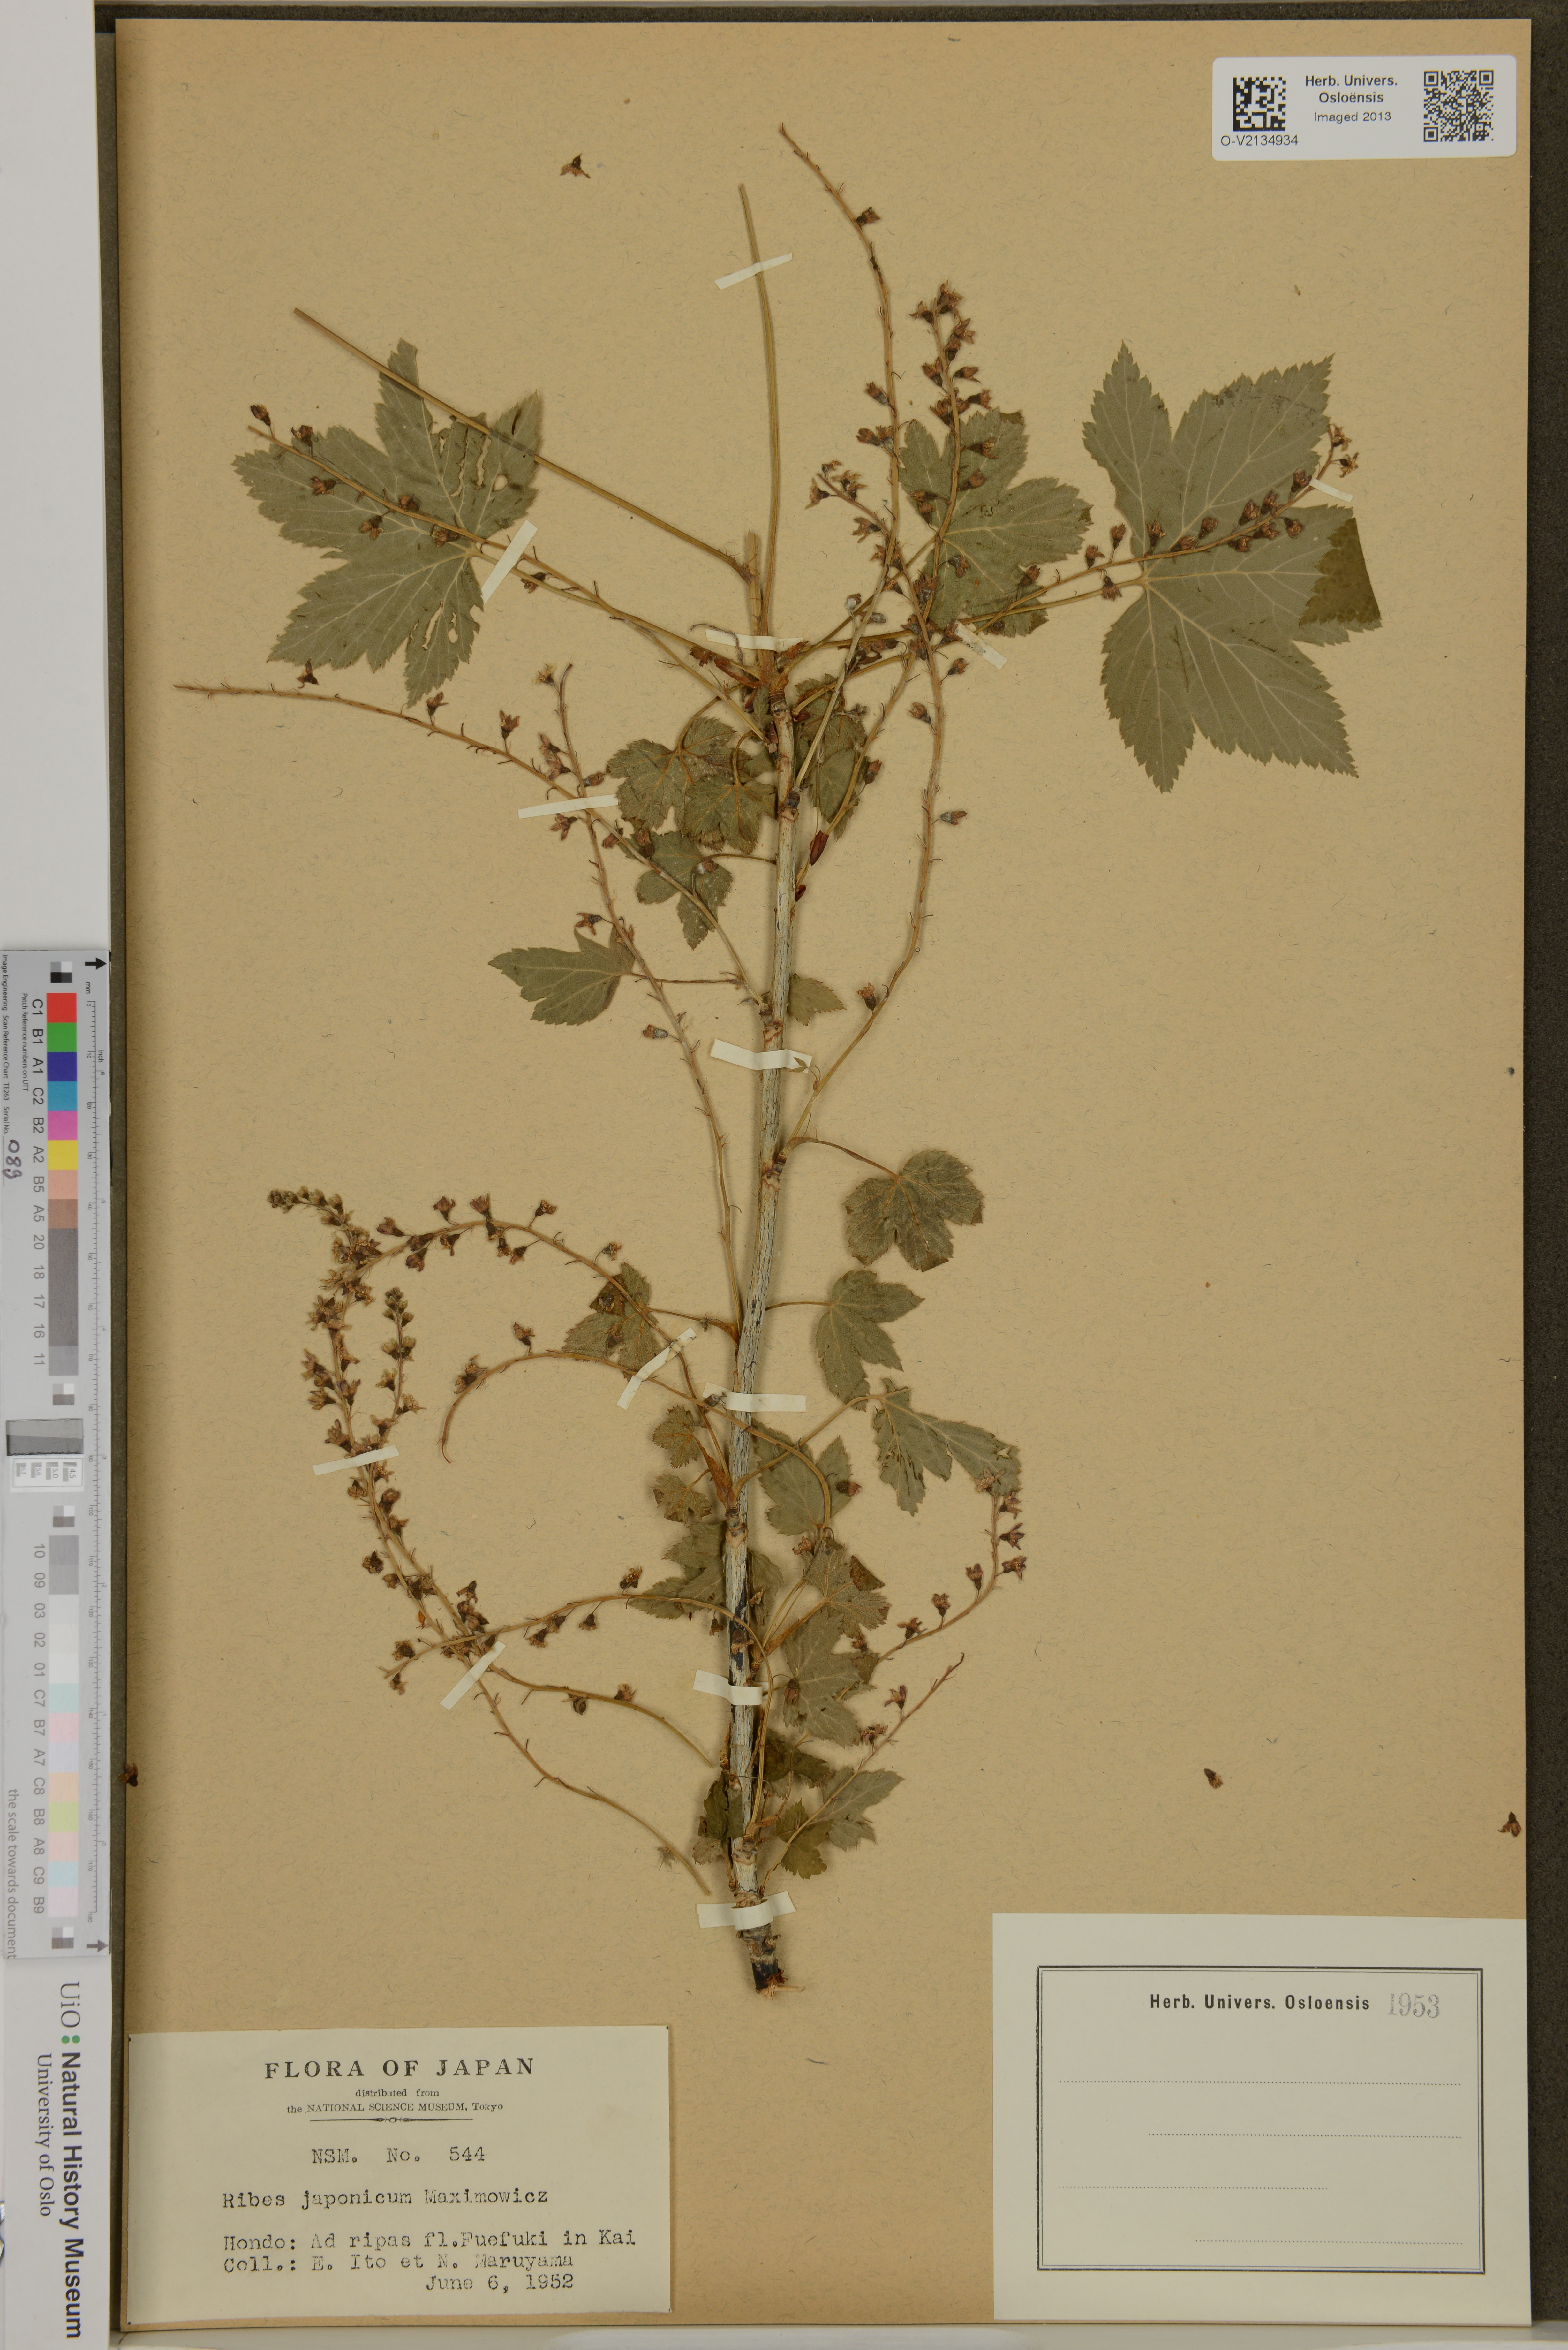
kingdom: Plantae
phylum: Tracheophyta
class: Magnoliopsida
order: Saxifragales
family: Grossulariaceae
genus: Ribes
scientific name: Ribes japonicum
